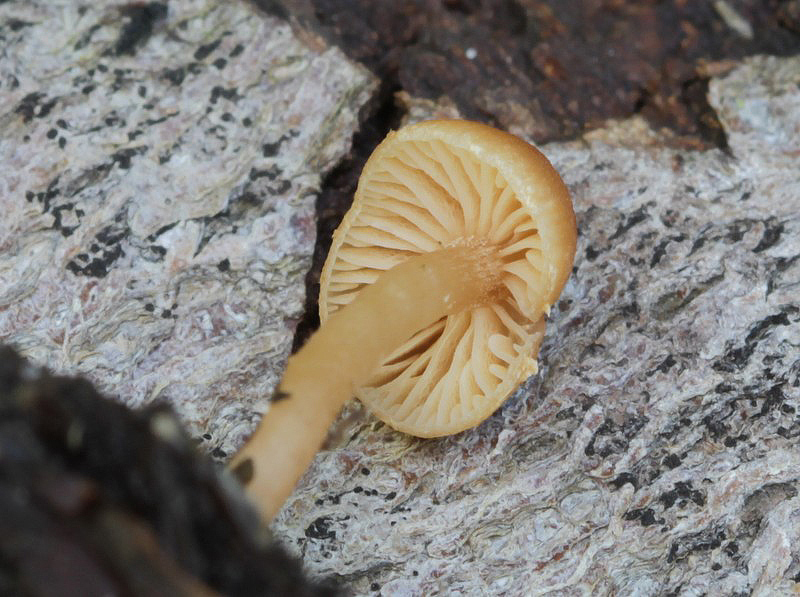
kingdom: Fungi
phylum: Basidiomycota
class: Agaricomycetes
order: Agaricales
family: Tubariaceae
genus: Tubaria
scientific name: Tubaria furfuracea
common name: kliddet fnughat
